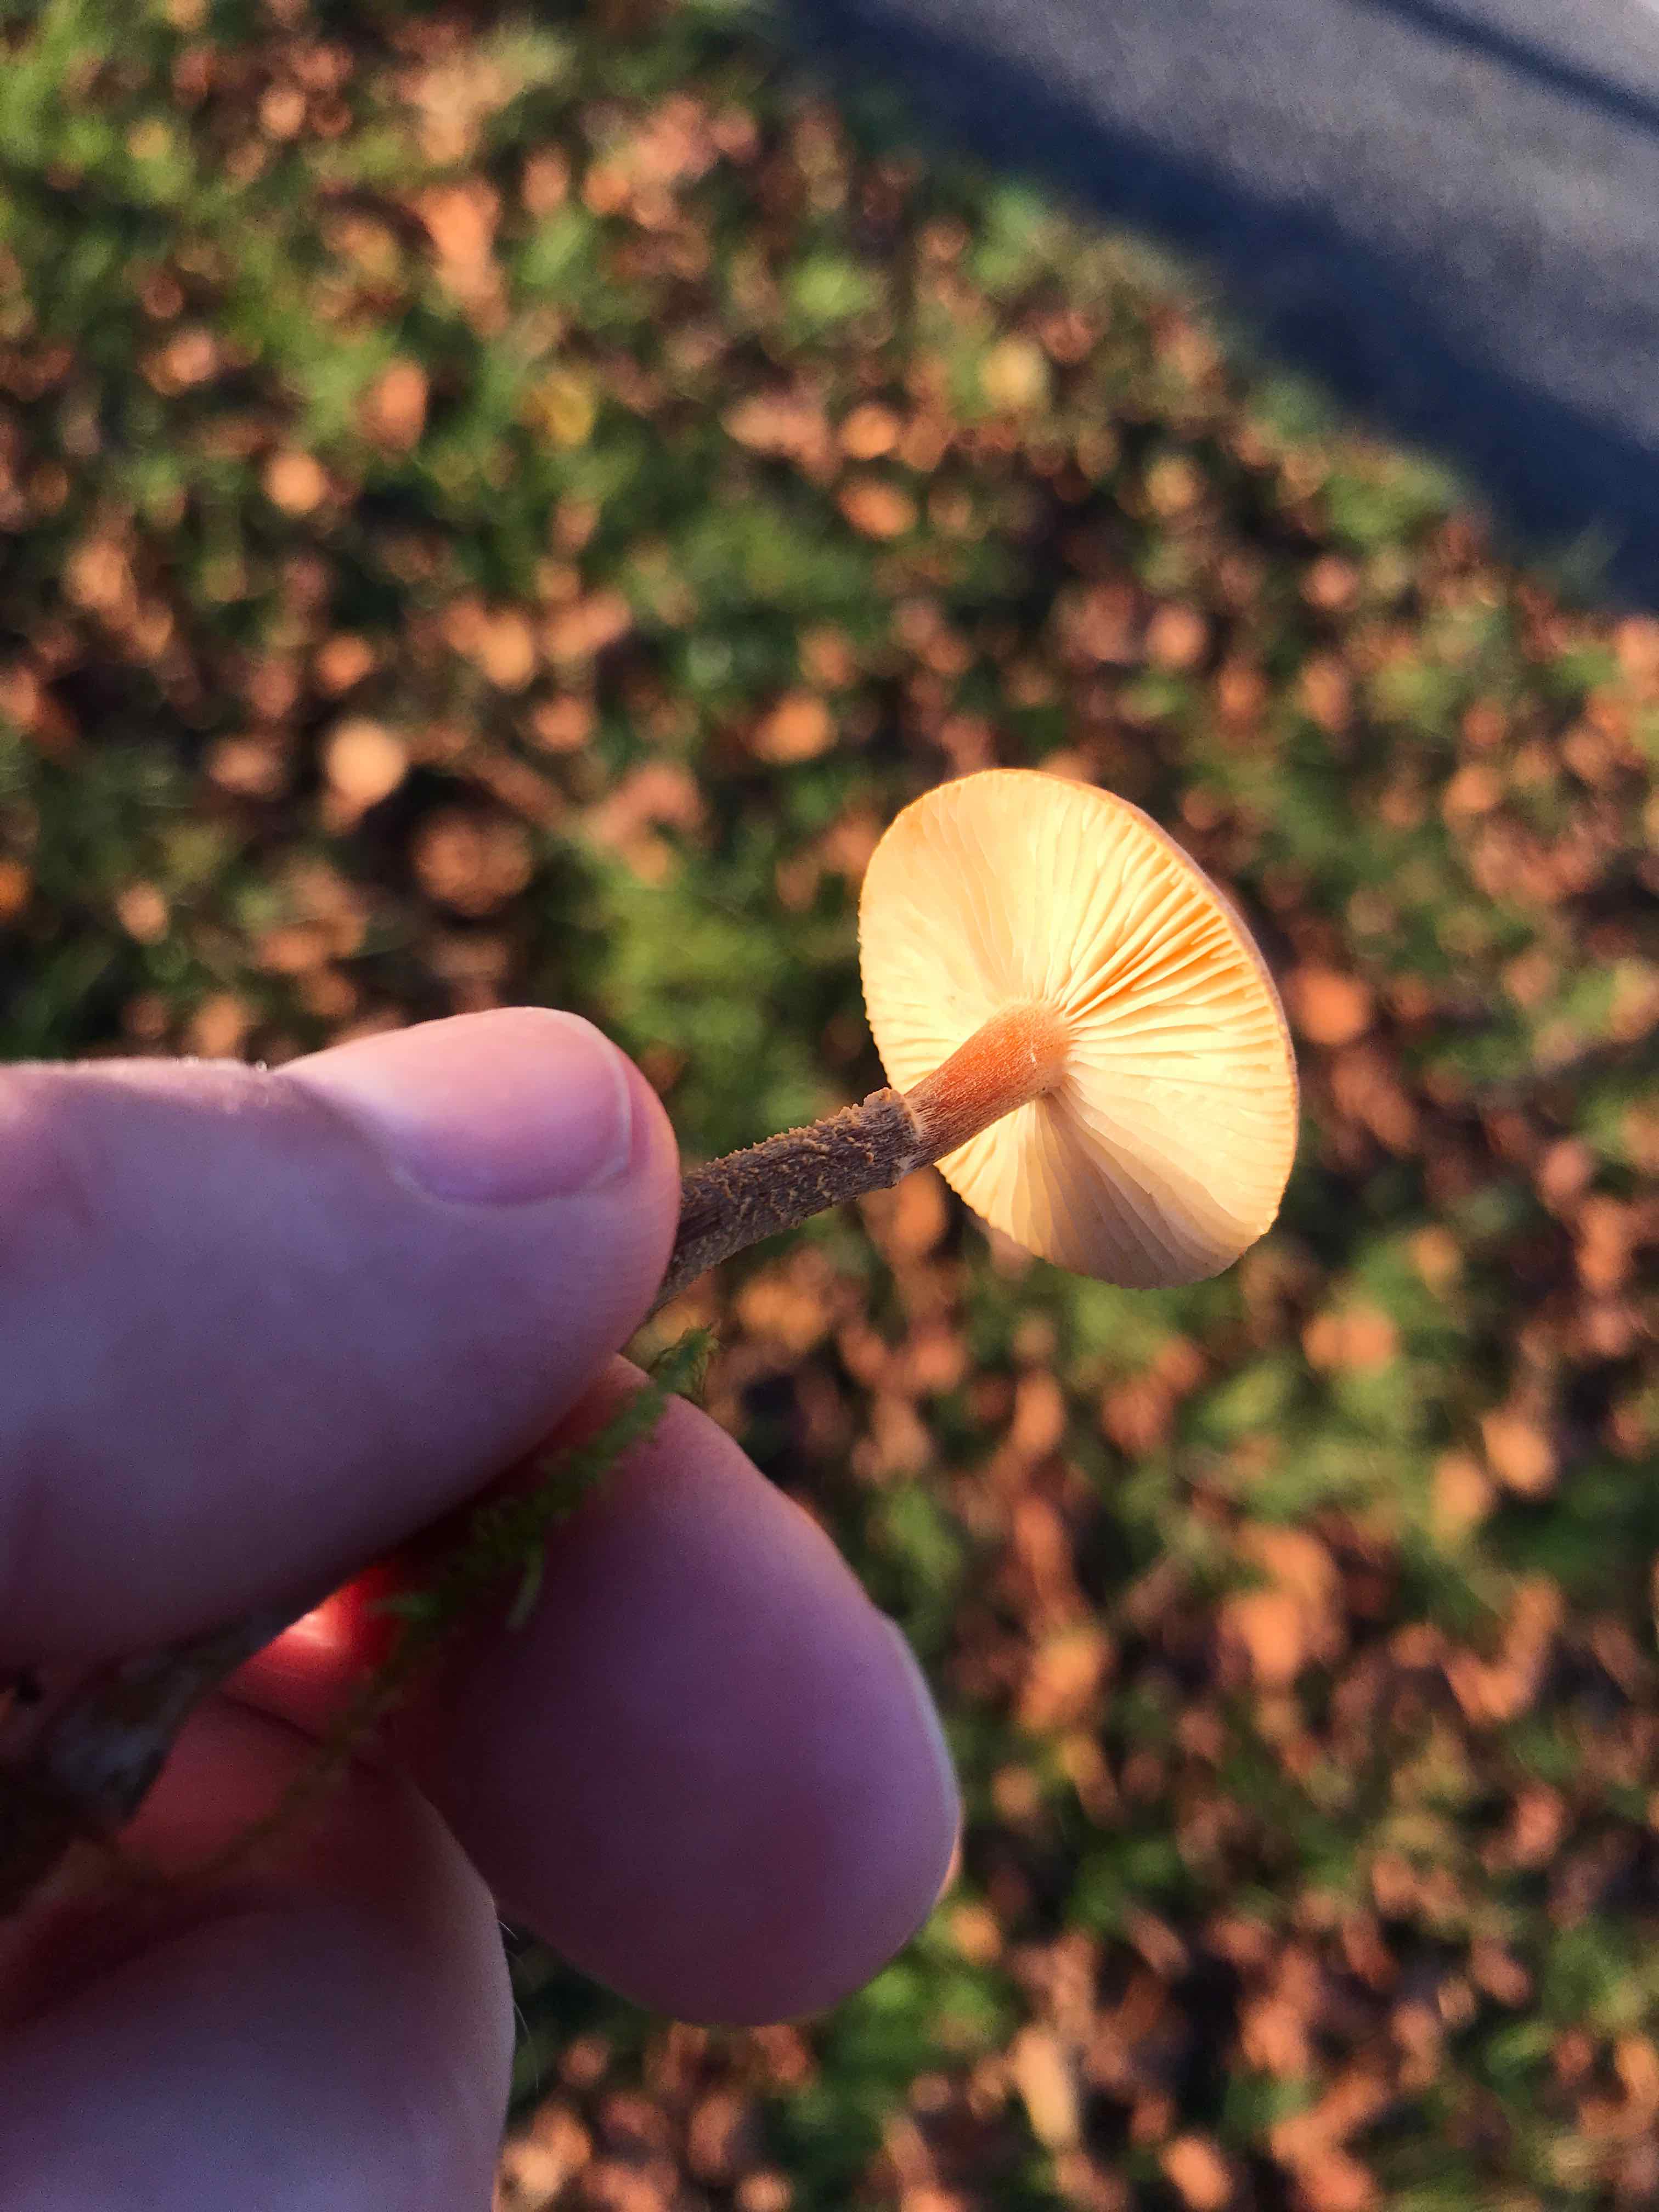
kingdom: Fungi
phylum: Basidiomycota
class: Agaricomycetes
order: Agaricales
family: Tricholomataceae
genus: Cystoderma
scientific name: Cystoderma amianthinum
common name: okkergul grynhat
